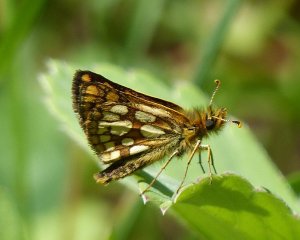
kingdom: Animalia
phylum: Arthropoda
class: Insecta
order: Lepidoptera
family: Hesperiidae
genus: Carterocephalus
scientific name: Carterocephalus palaemon
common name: Chequered Skipper
